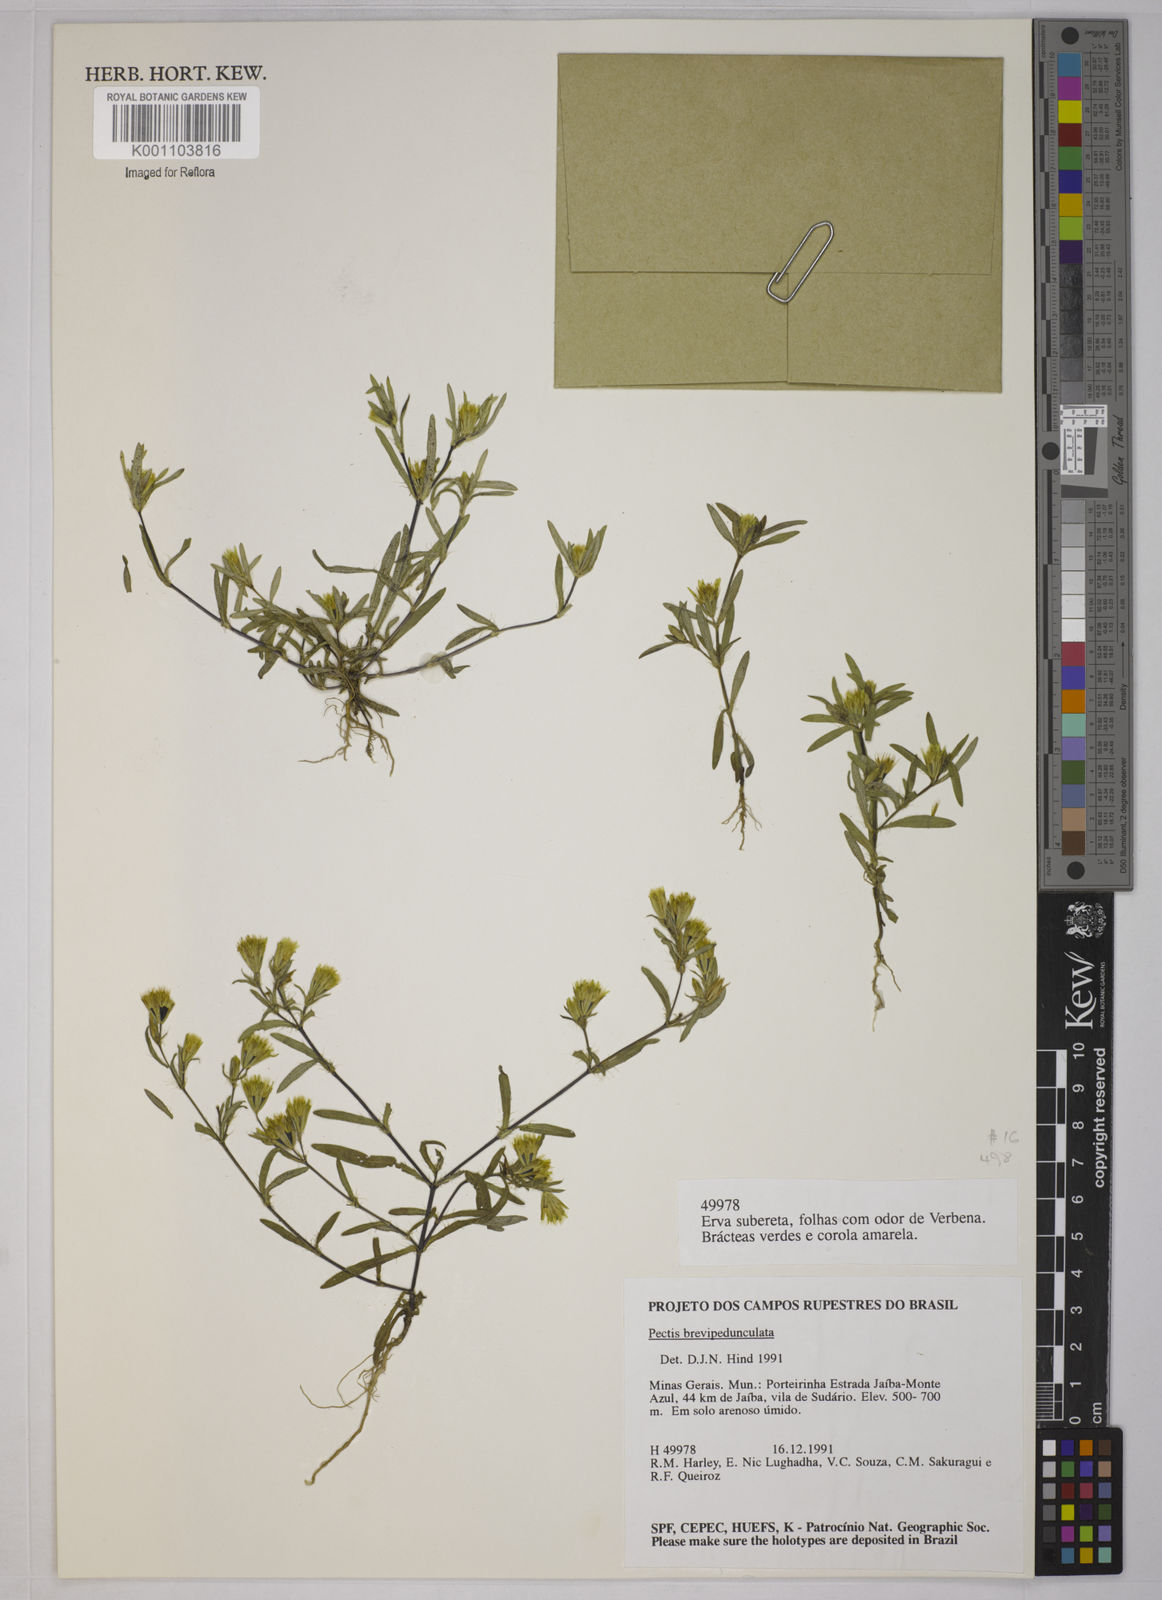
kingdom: Plantae
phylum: Tracheophyta
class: Magnoliopsida
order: Asterales
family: Asteraceae
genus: Pectis
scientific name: Pectis brevipedunculata
